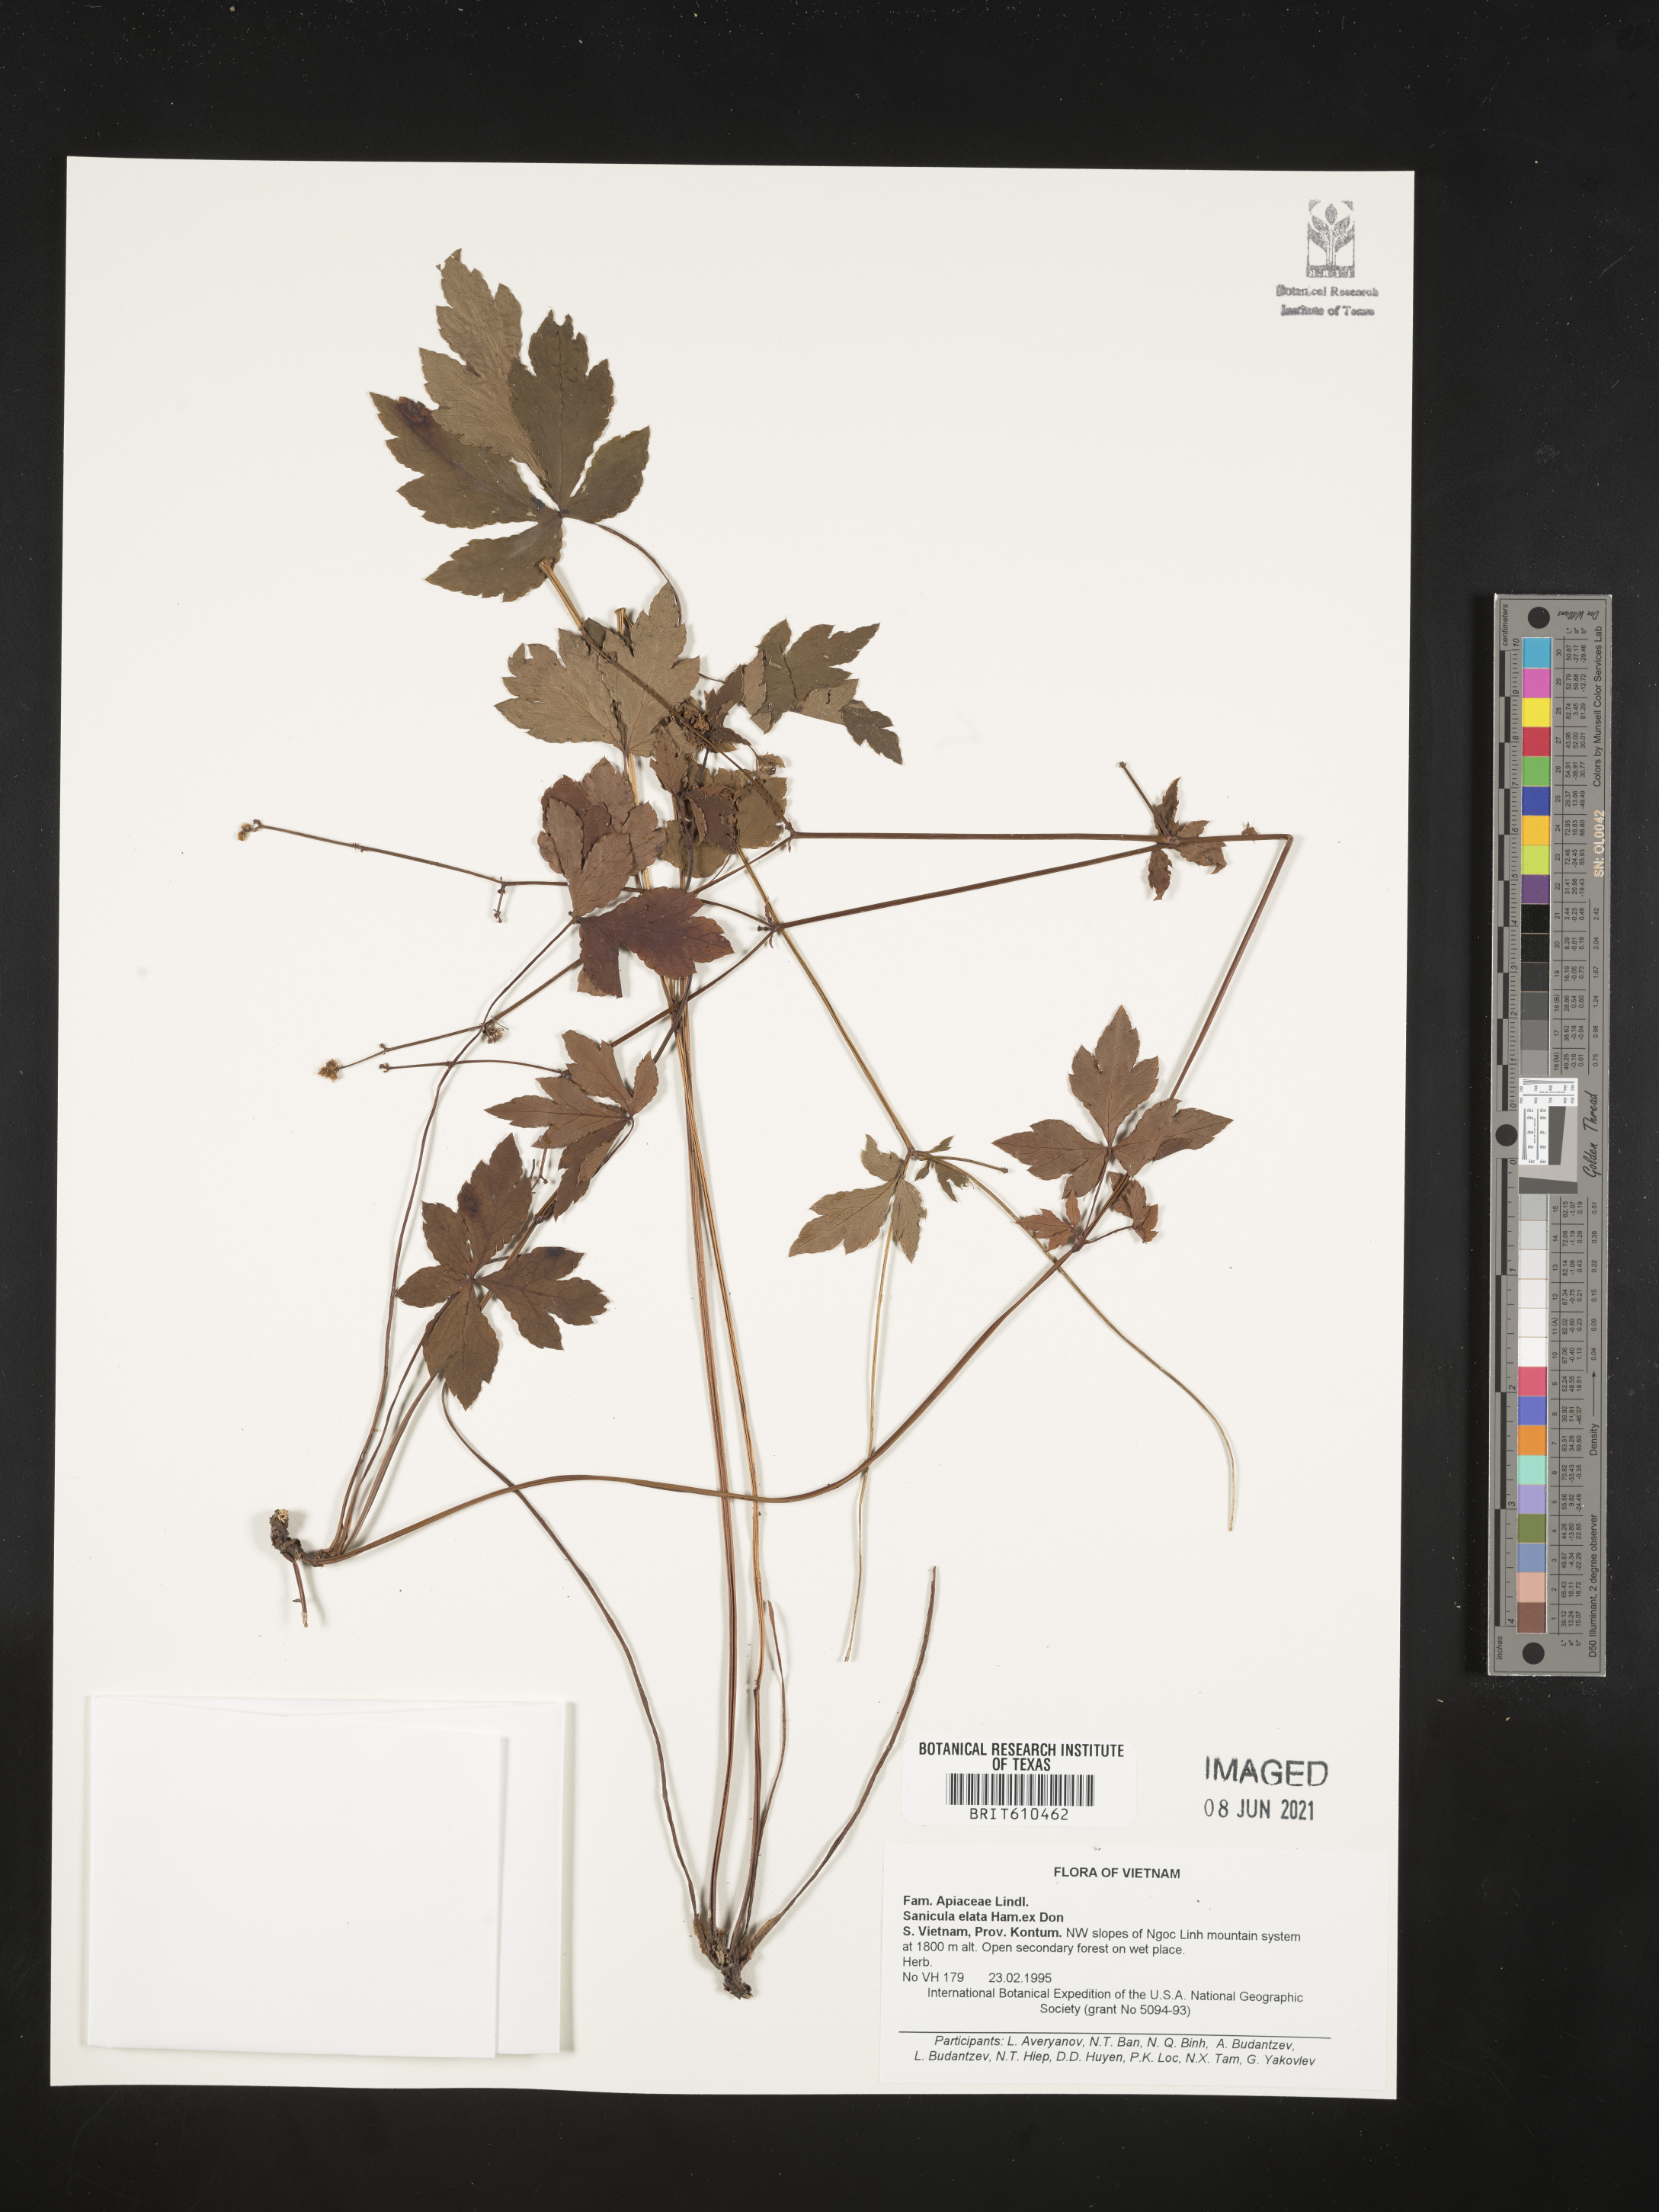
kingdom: Plantae
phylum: Tracheophyta
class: Magnoliopsida
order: Apiales
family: Apiaceae
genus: Sanicula
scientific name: Sanicula elata
